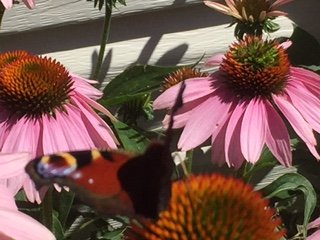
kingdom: Animalia
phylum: Arthropoda
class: Insecta
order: Lepidoptera
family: Nymphalidae
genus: Aglais
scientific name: Aglais io
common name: European Peacock
